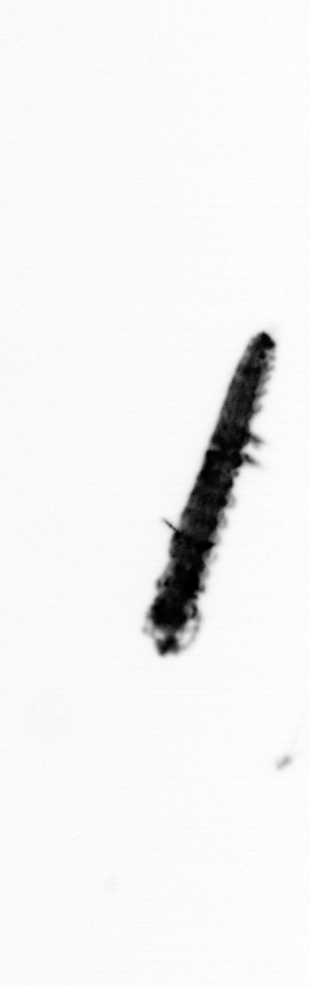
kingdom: Animalia
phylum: Annelida
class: Polychaeta
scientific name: Polychaeta
